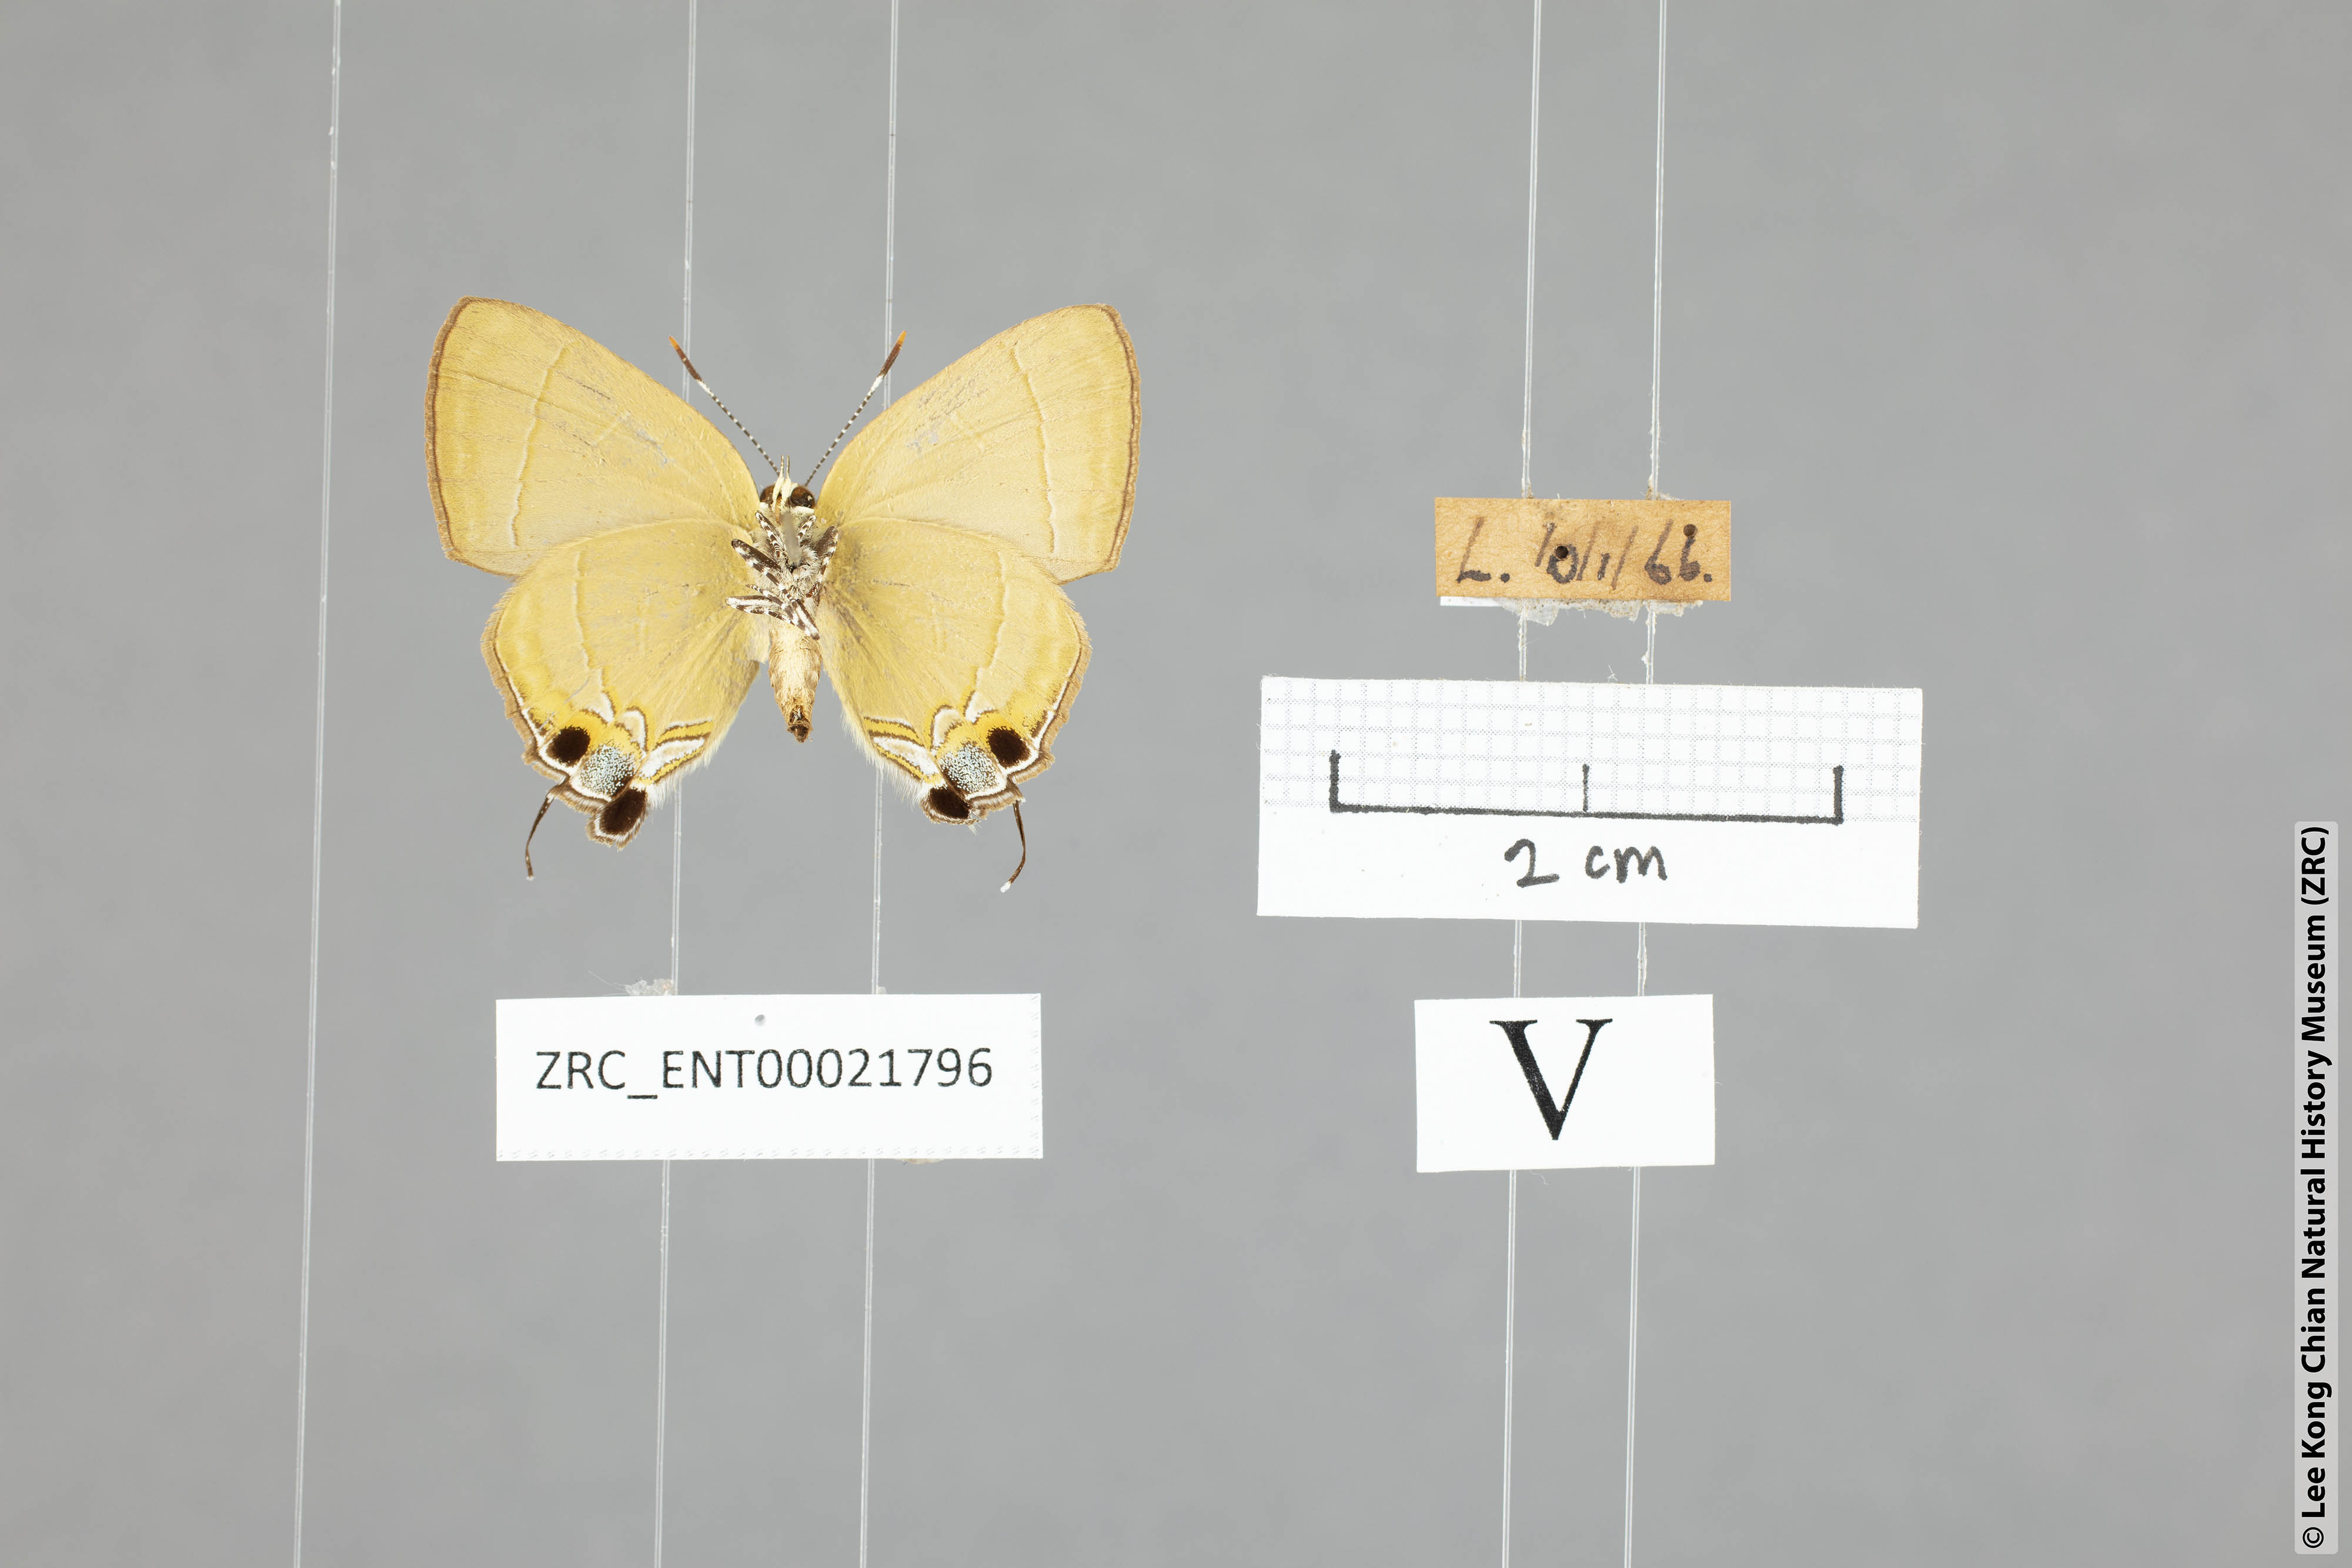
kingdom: Animalia
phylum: Arthropoda
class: Insecta
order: Lepidoptera
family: Lycaenidae
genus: Rapala
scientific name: Rapala dieneces
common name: Scarlet flash
